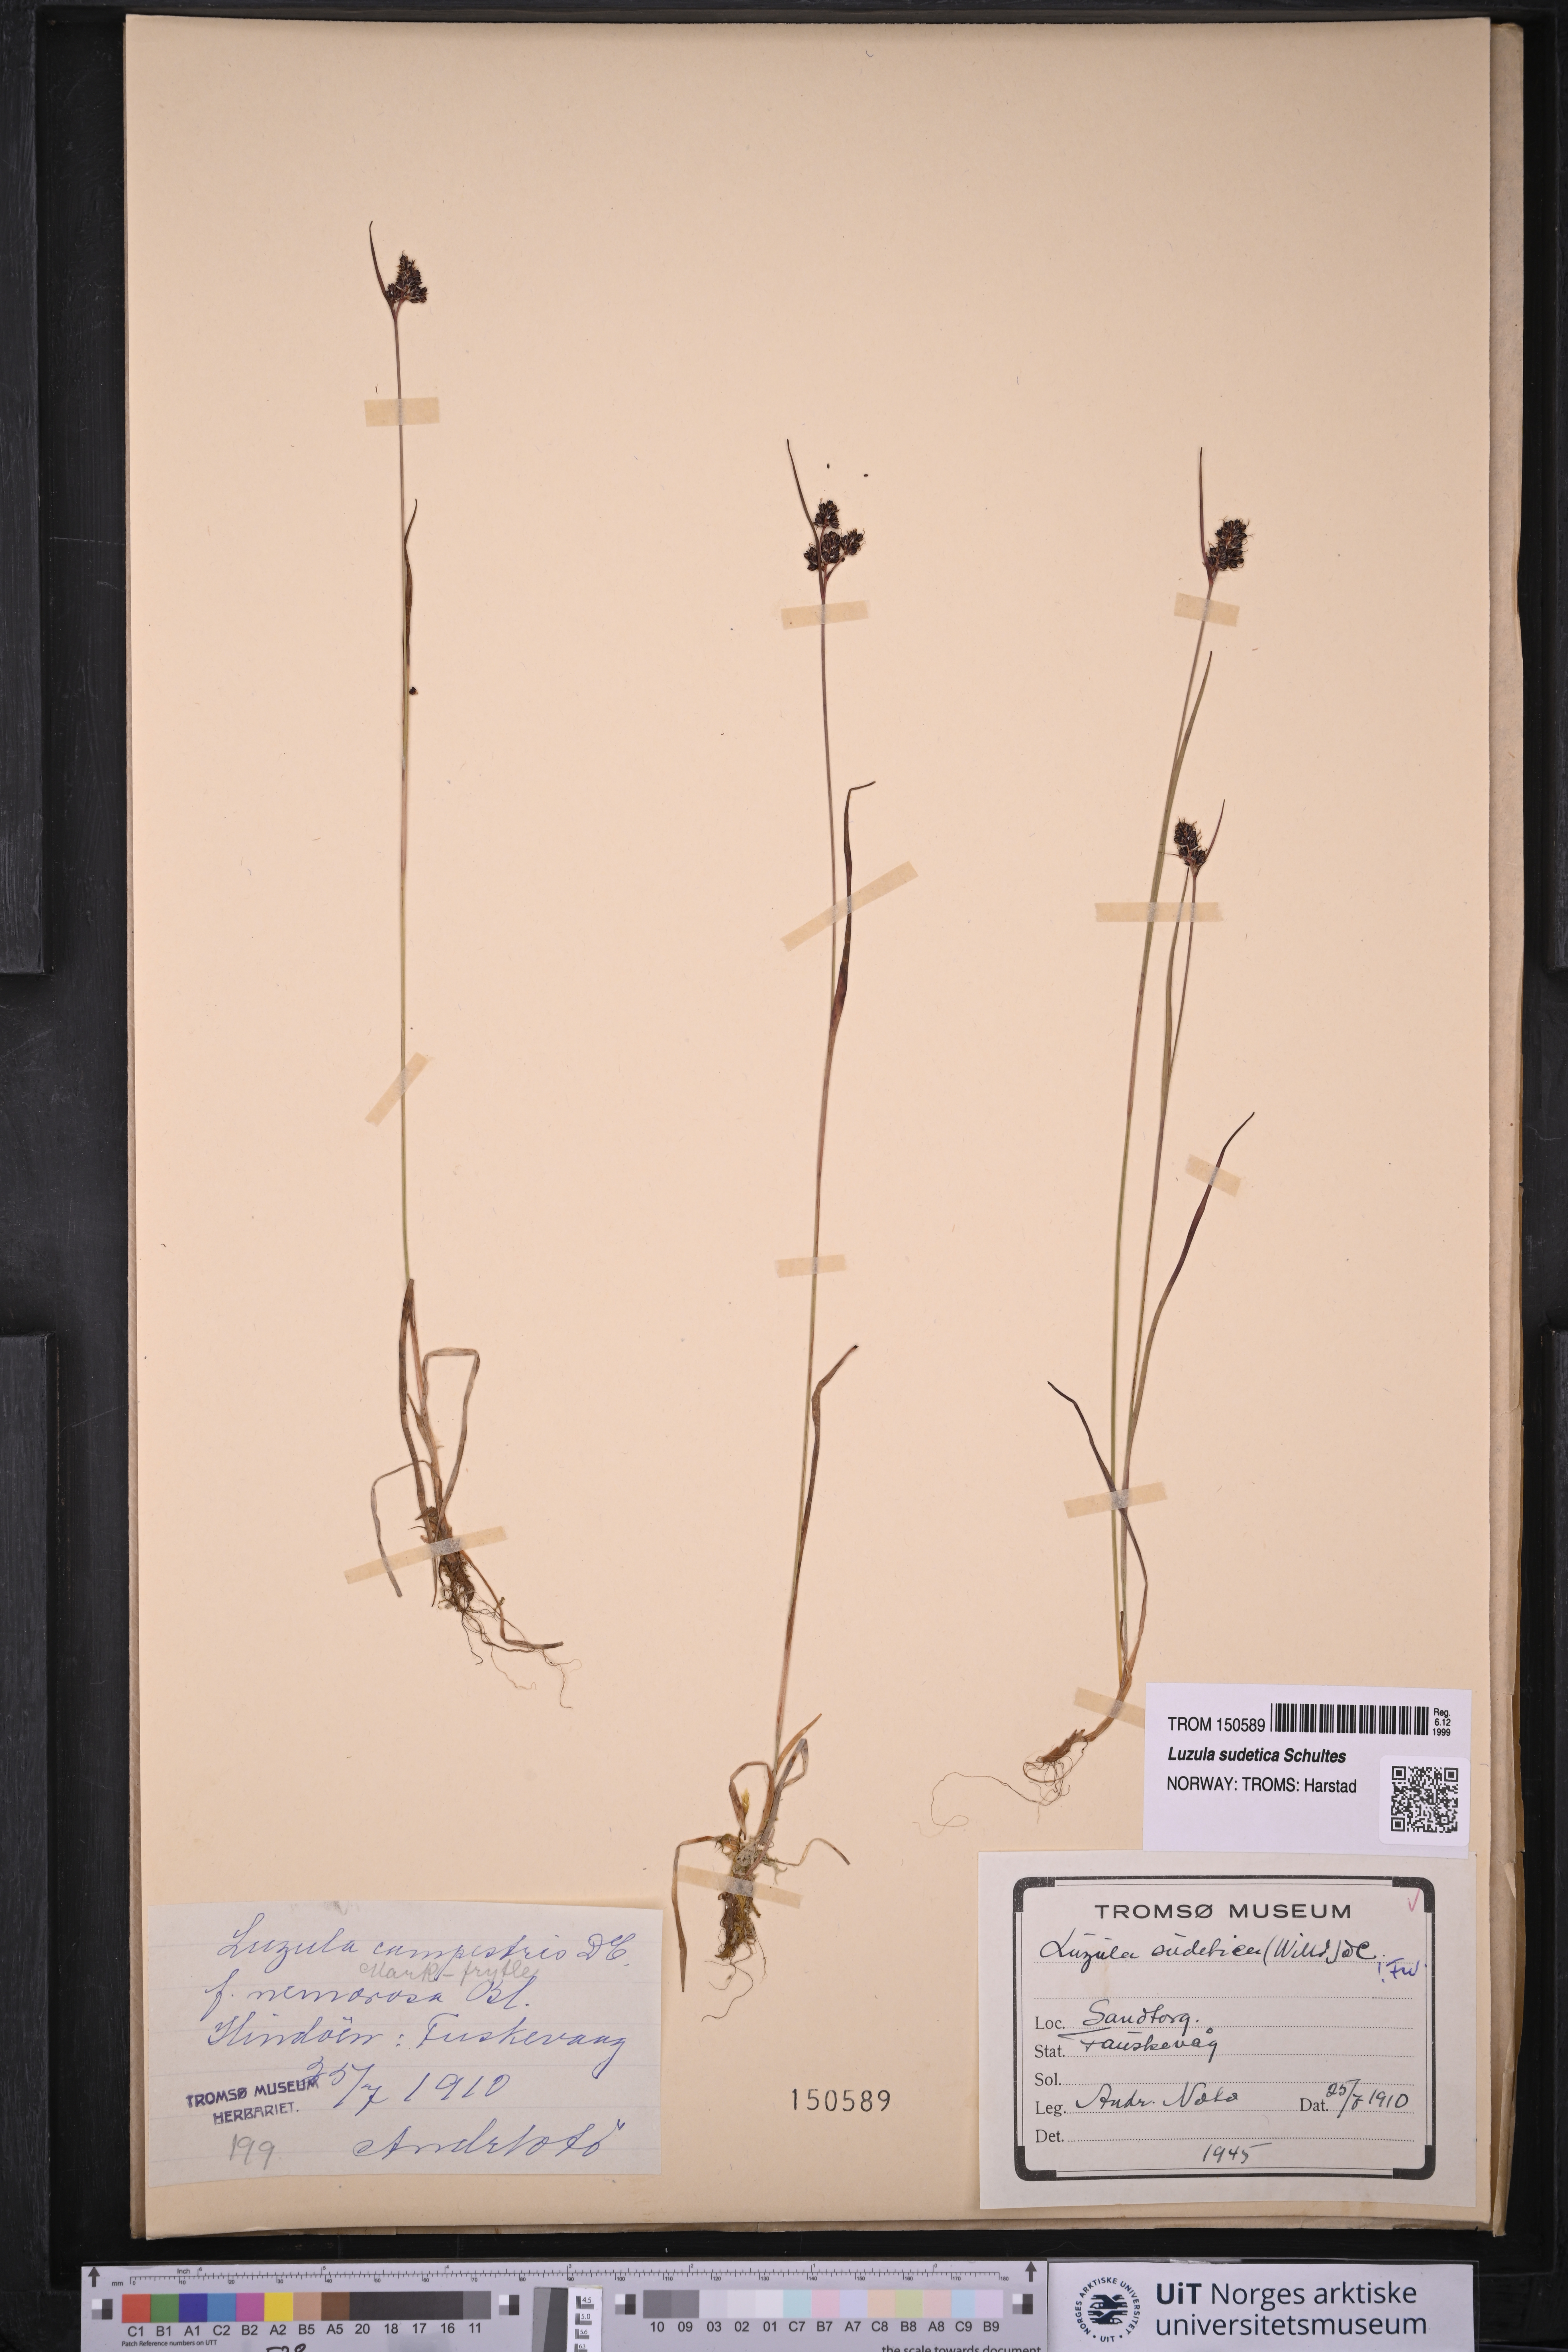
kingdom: Plantae
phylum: Tracheophyta
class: Liliopsida
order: Poales
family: Juncaceae
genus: Luzula
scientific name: Luzula sudetica
